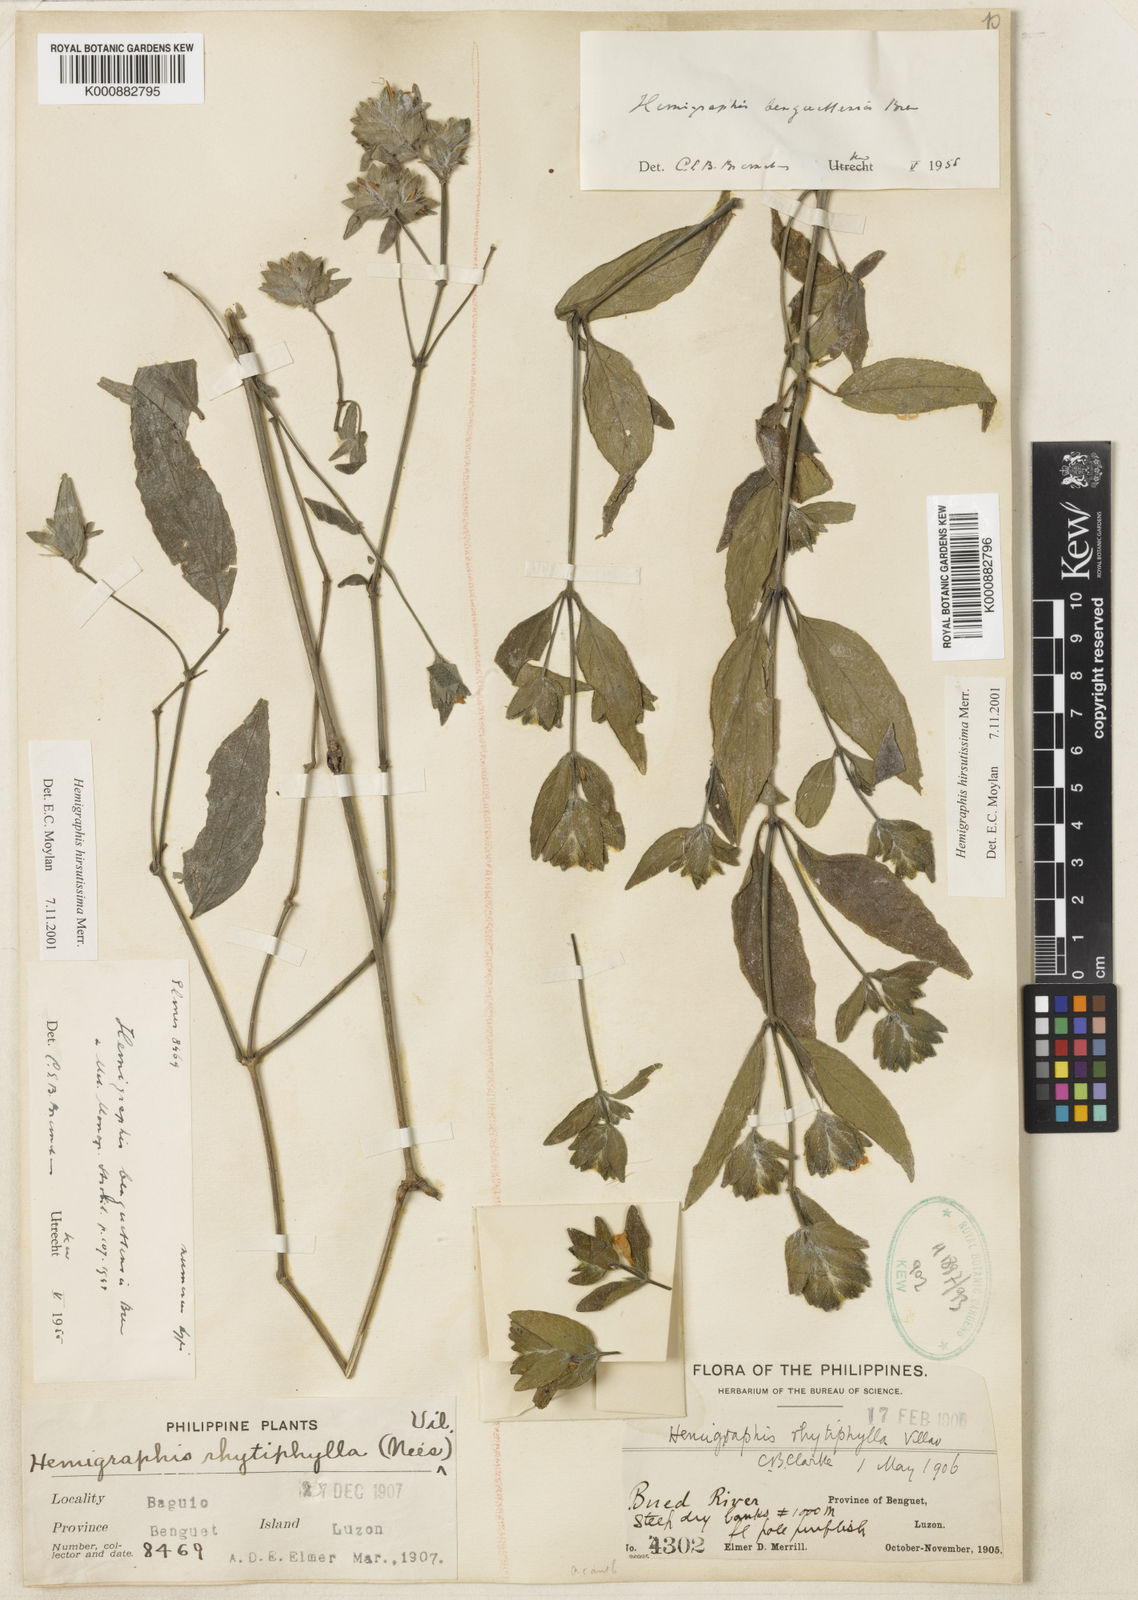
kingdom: Plantae
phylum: Tracheophyta
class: Magnoliopsida
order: Lamiales
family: Acanthaceae
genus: Strobilanthes
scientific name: Strobilanthes pauciflora
